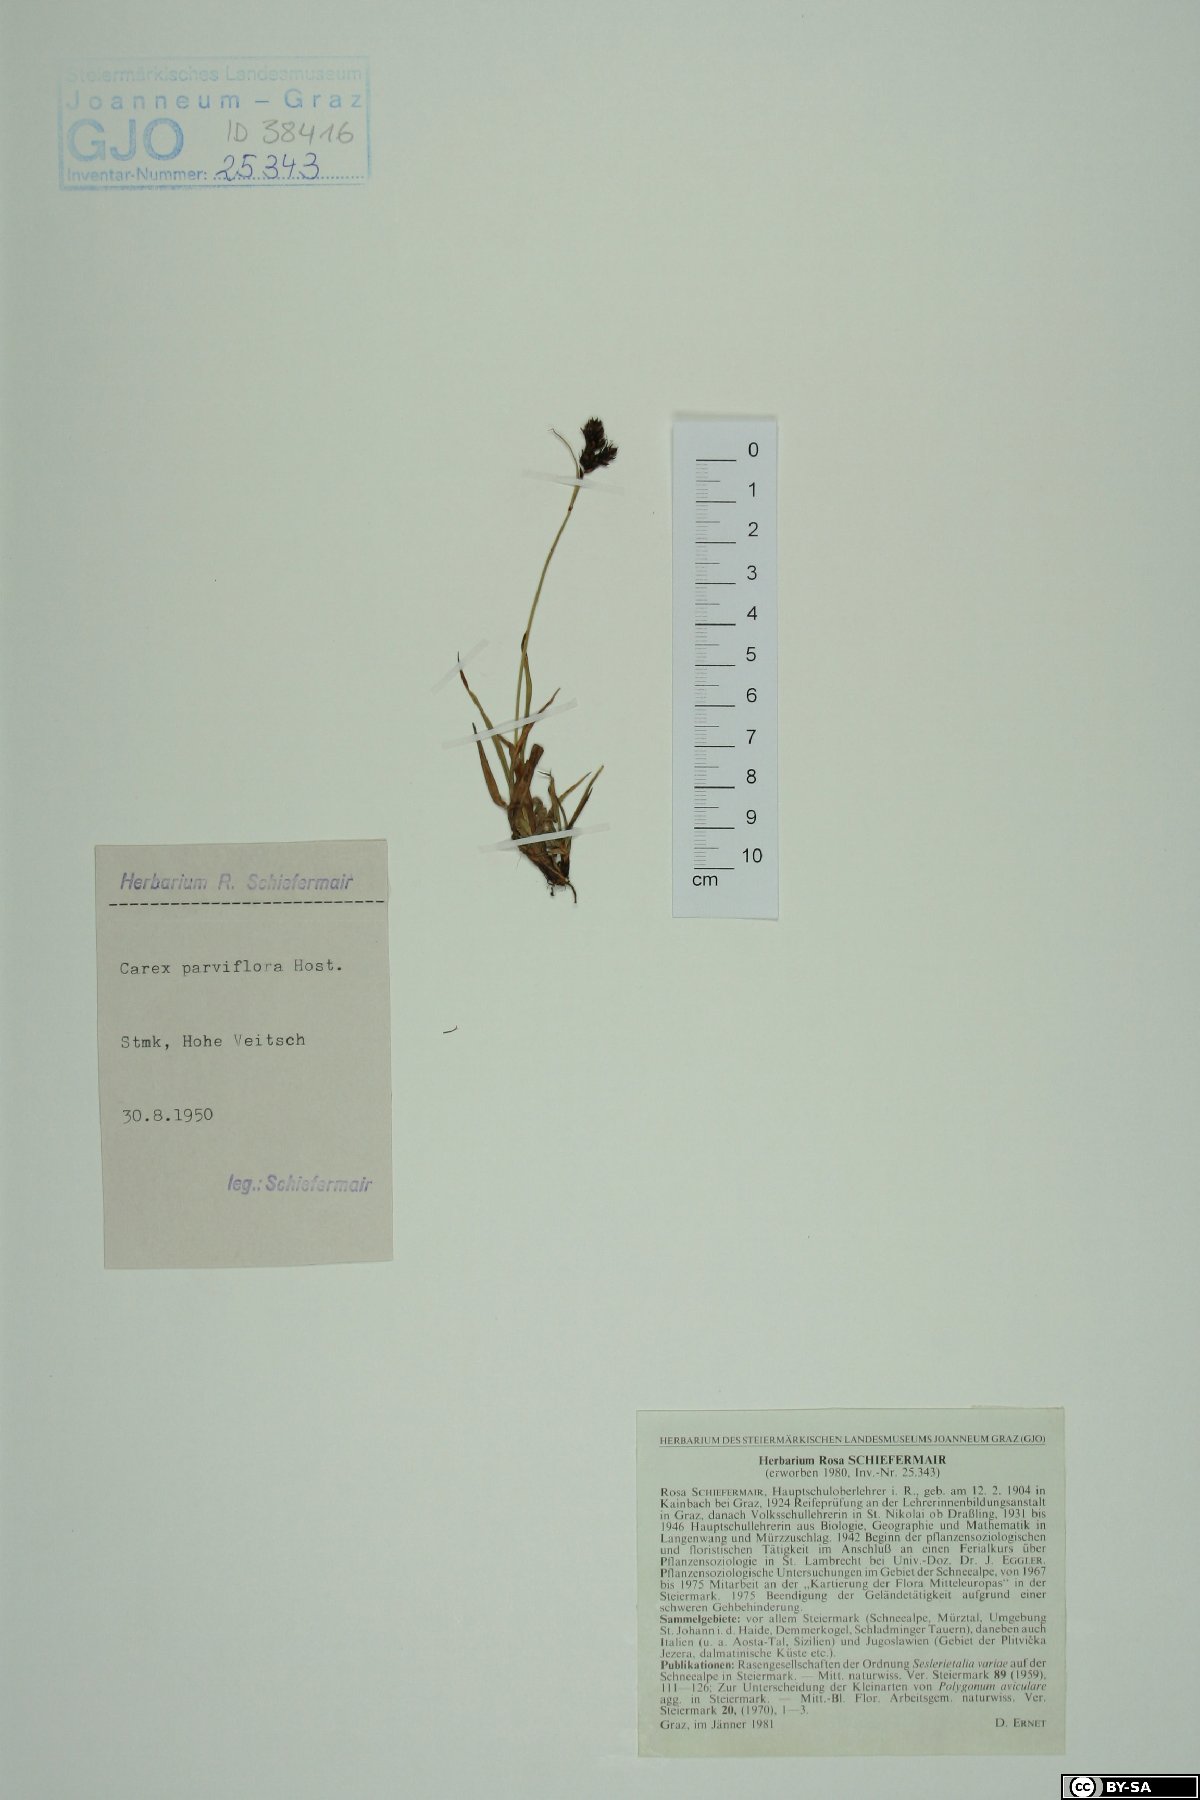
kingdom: Plantae
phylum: Tracheophyta
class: Liliopsida
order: Poales
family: Cyperaceae
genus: Carex
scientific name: Carex parviflora
